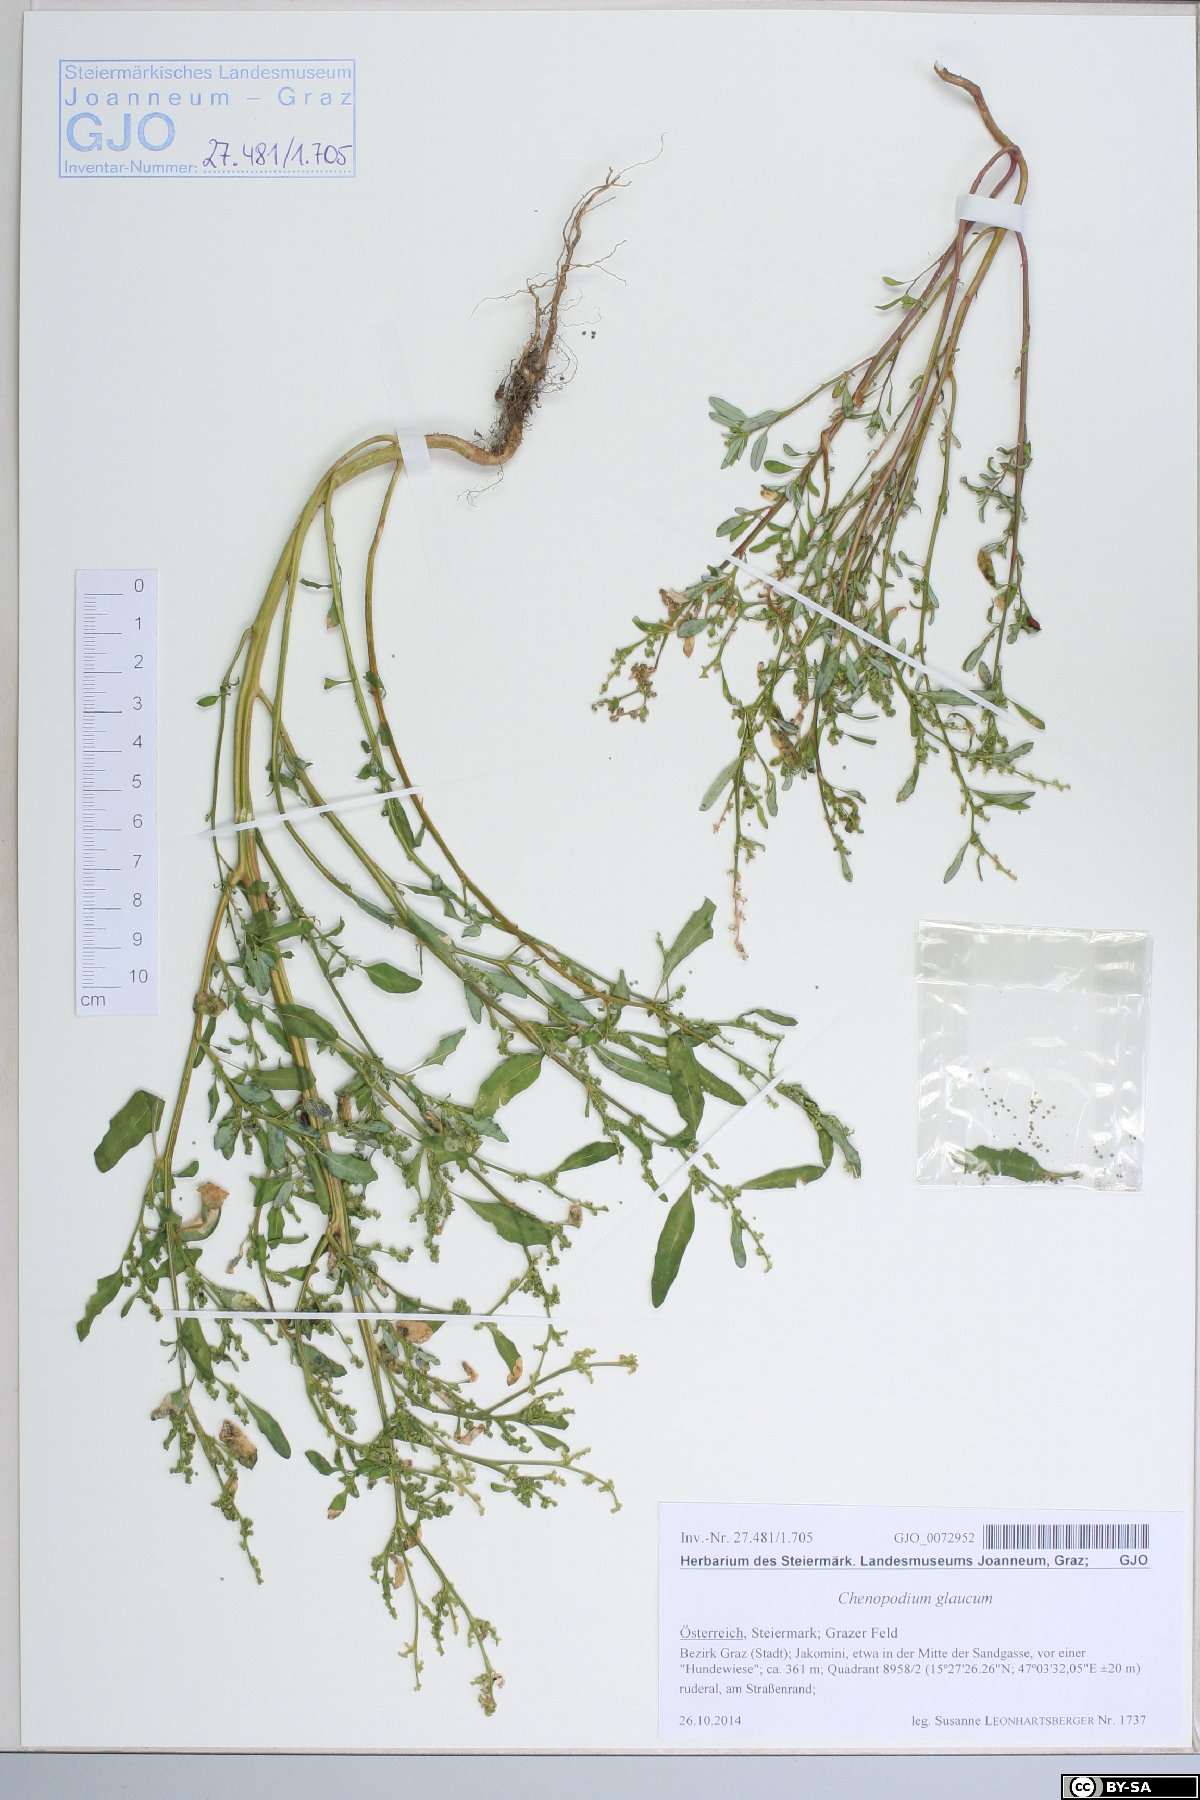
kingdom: Plantae
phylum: Tracheophyta
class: Magnoliopsida
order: Caryophyllales
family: Amaranthaceae
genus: Oxybasis
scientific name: Oxybasis glauca
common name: Glaucous goosefoot
